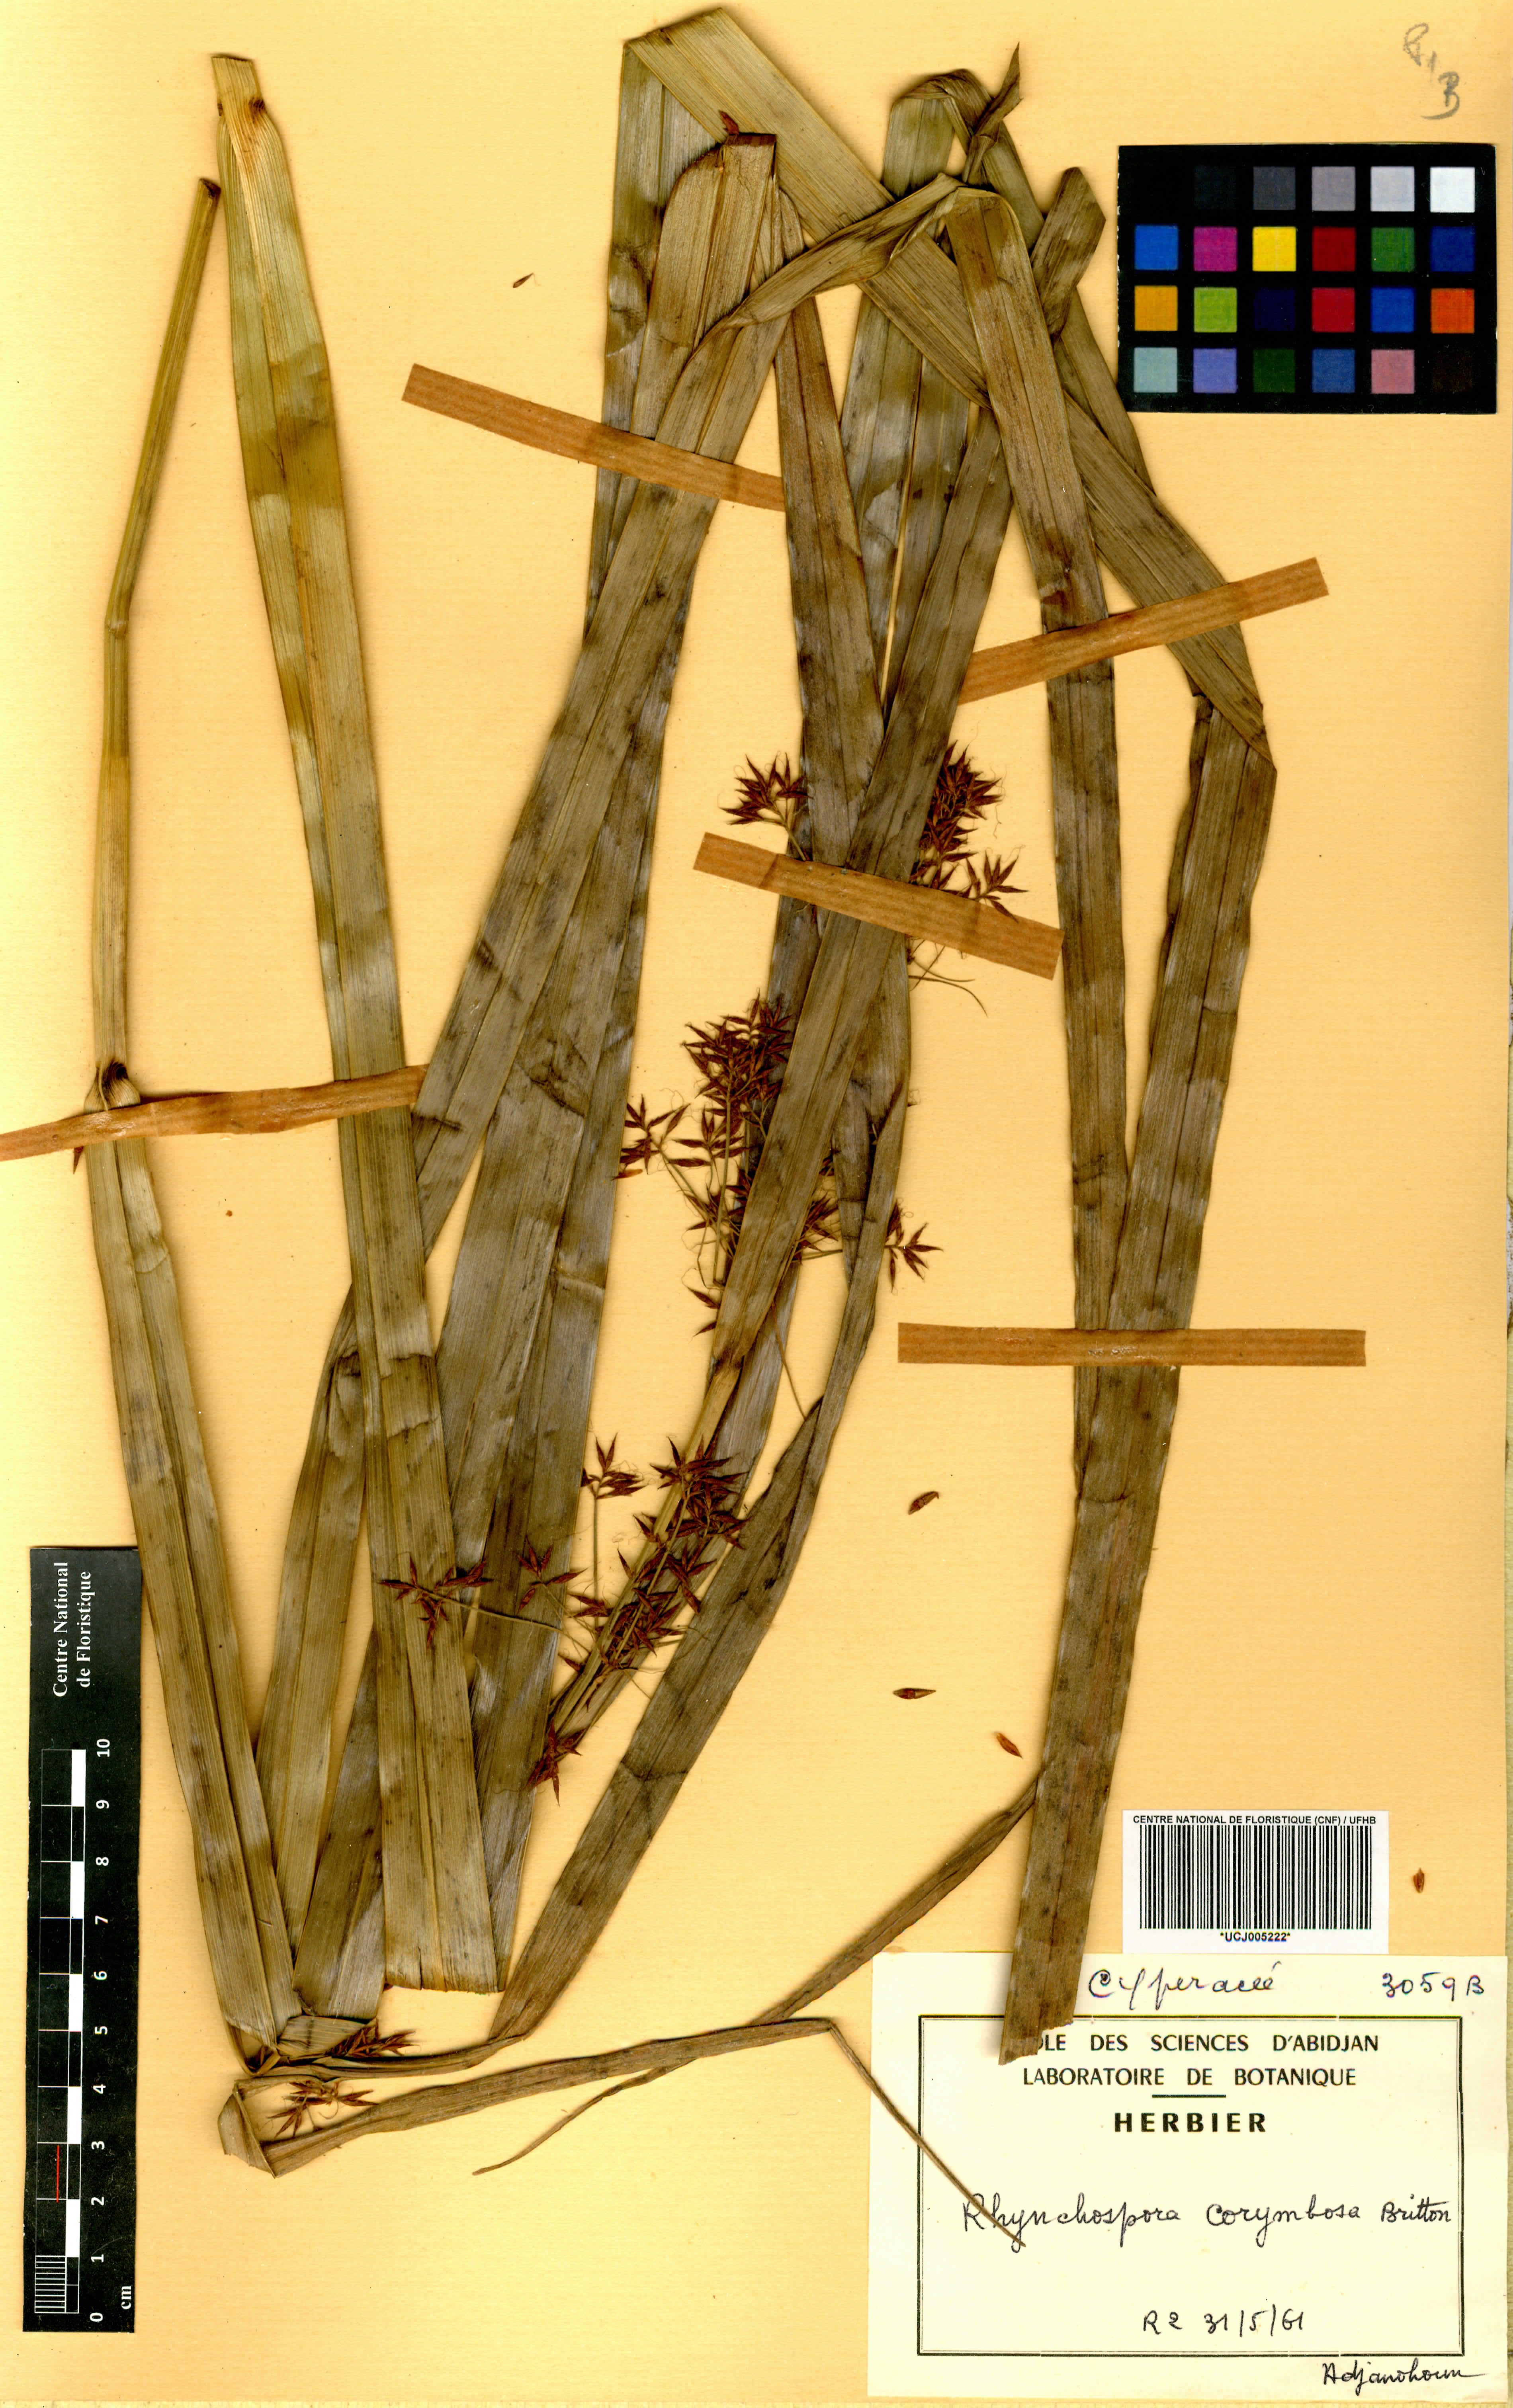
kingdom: Plantae
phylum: Tracheophyta
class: Liliopsida
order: Poales
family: Cyperaceae
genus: Rhynchospora
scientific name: Rhynchospora corymbosa
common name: Golden beak sedge
